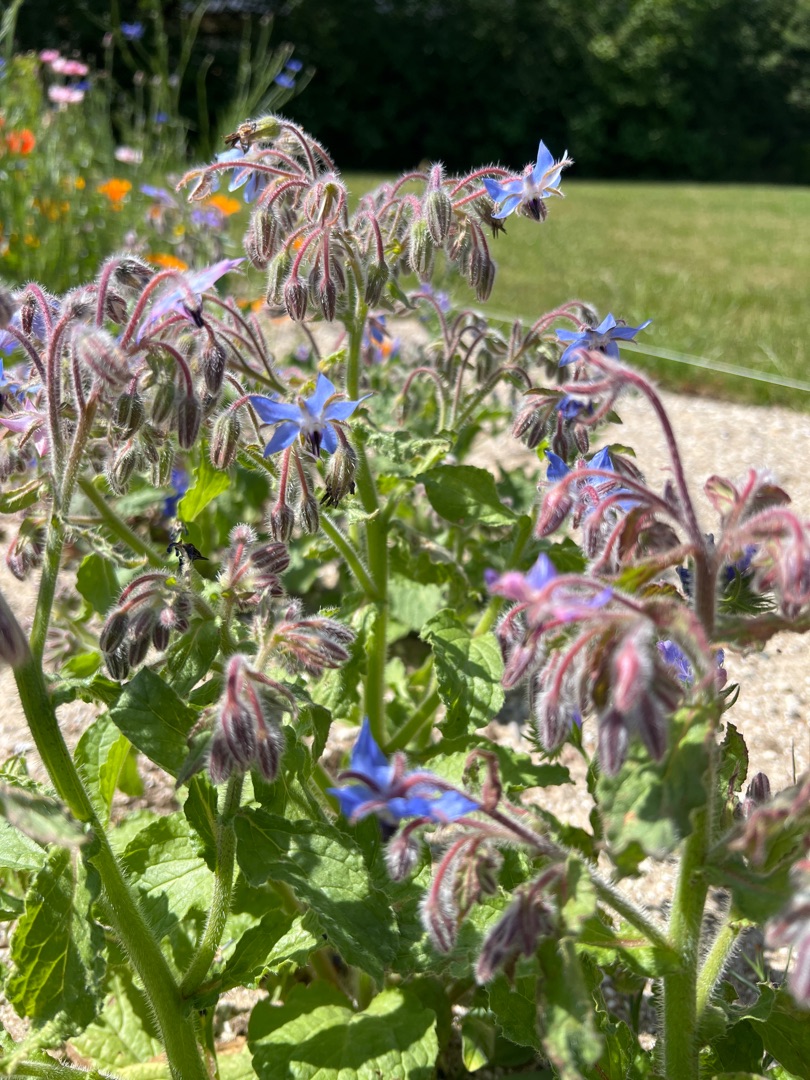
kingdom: Plantae
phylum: Tracheophyta
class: Magnoliopsida
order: Boraginales
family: Boraginaceae
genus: Borago
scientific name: Borago officinalis
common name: Hjulkrone
